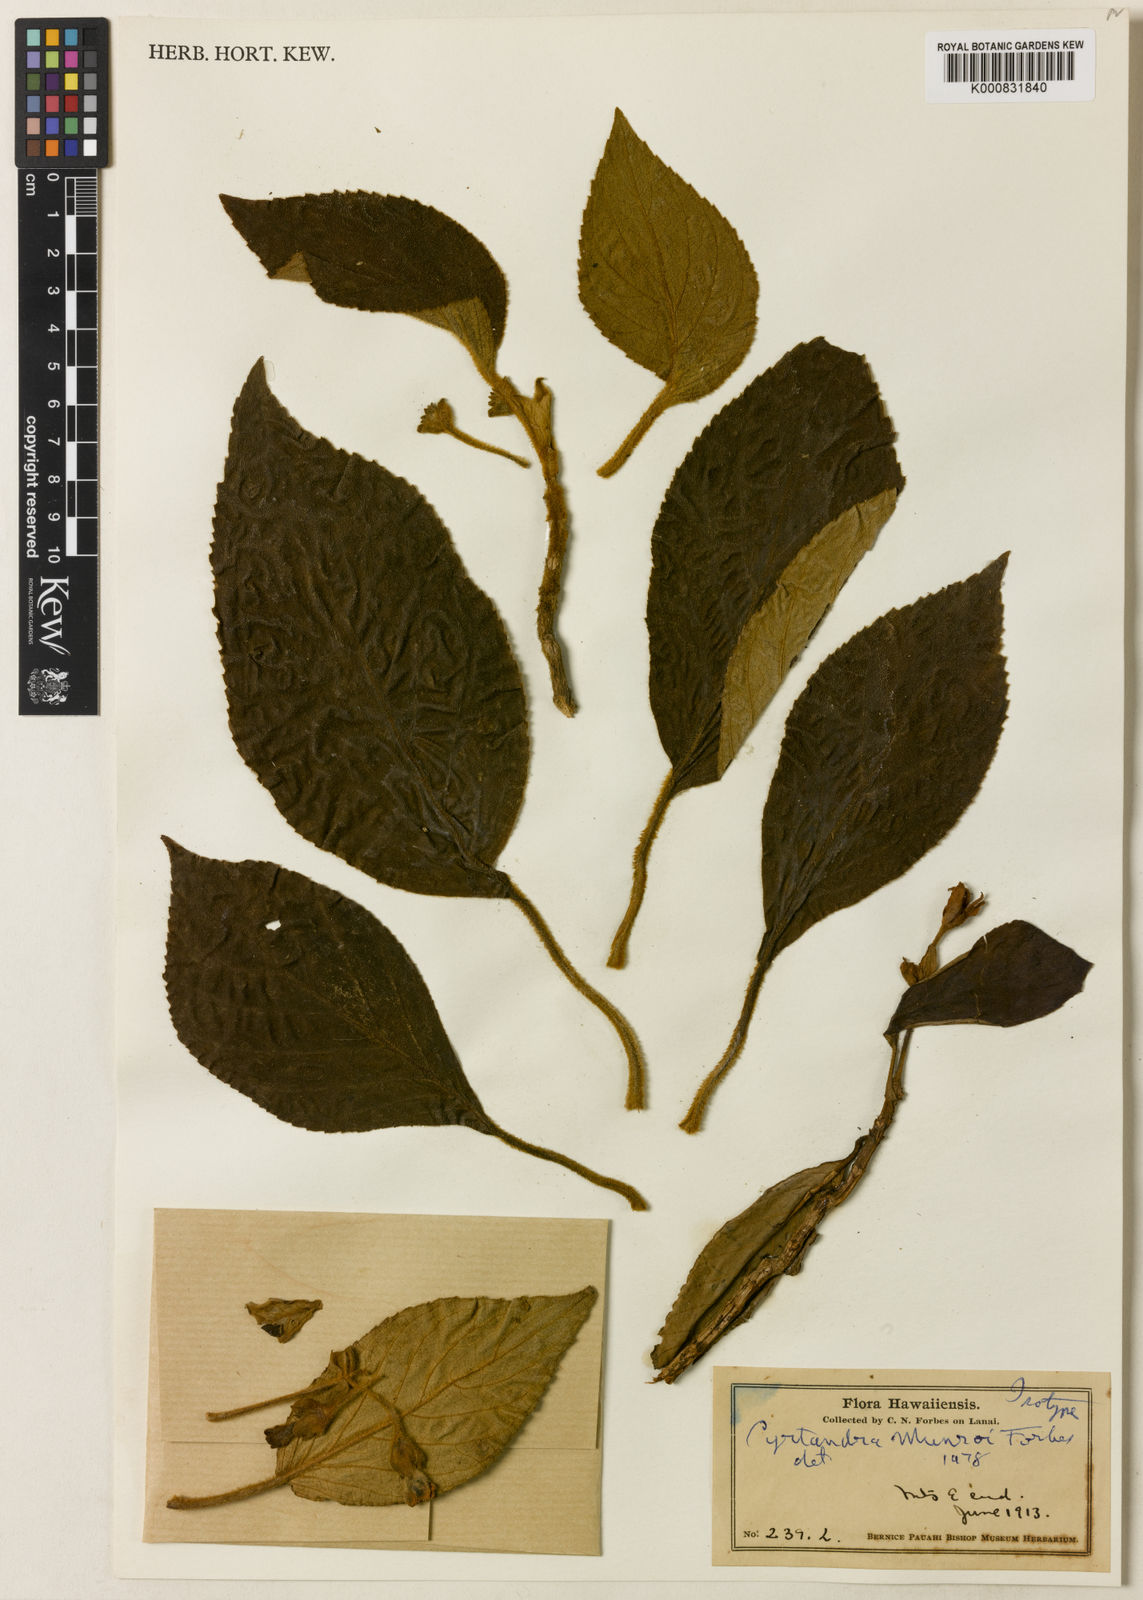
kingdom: Plantae
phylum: Tracheophyta
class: Magnoliopsida
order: Lamiales
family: Gesneriaceae
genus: Cyrtandra
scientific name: Cyrtandra munroi
